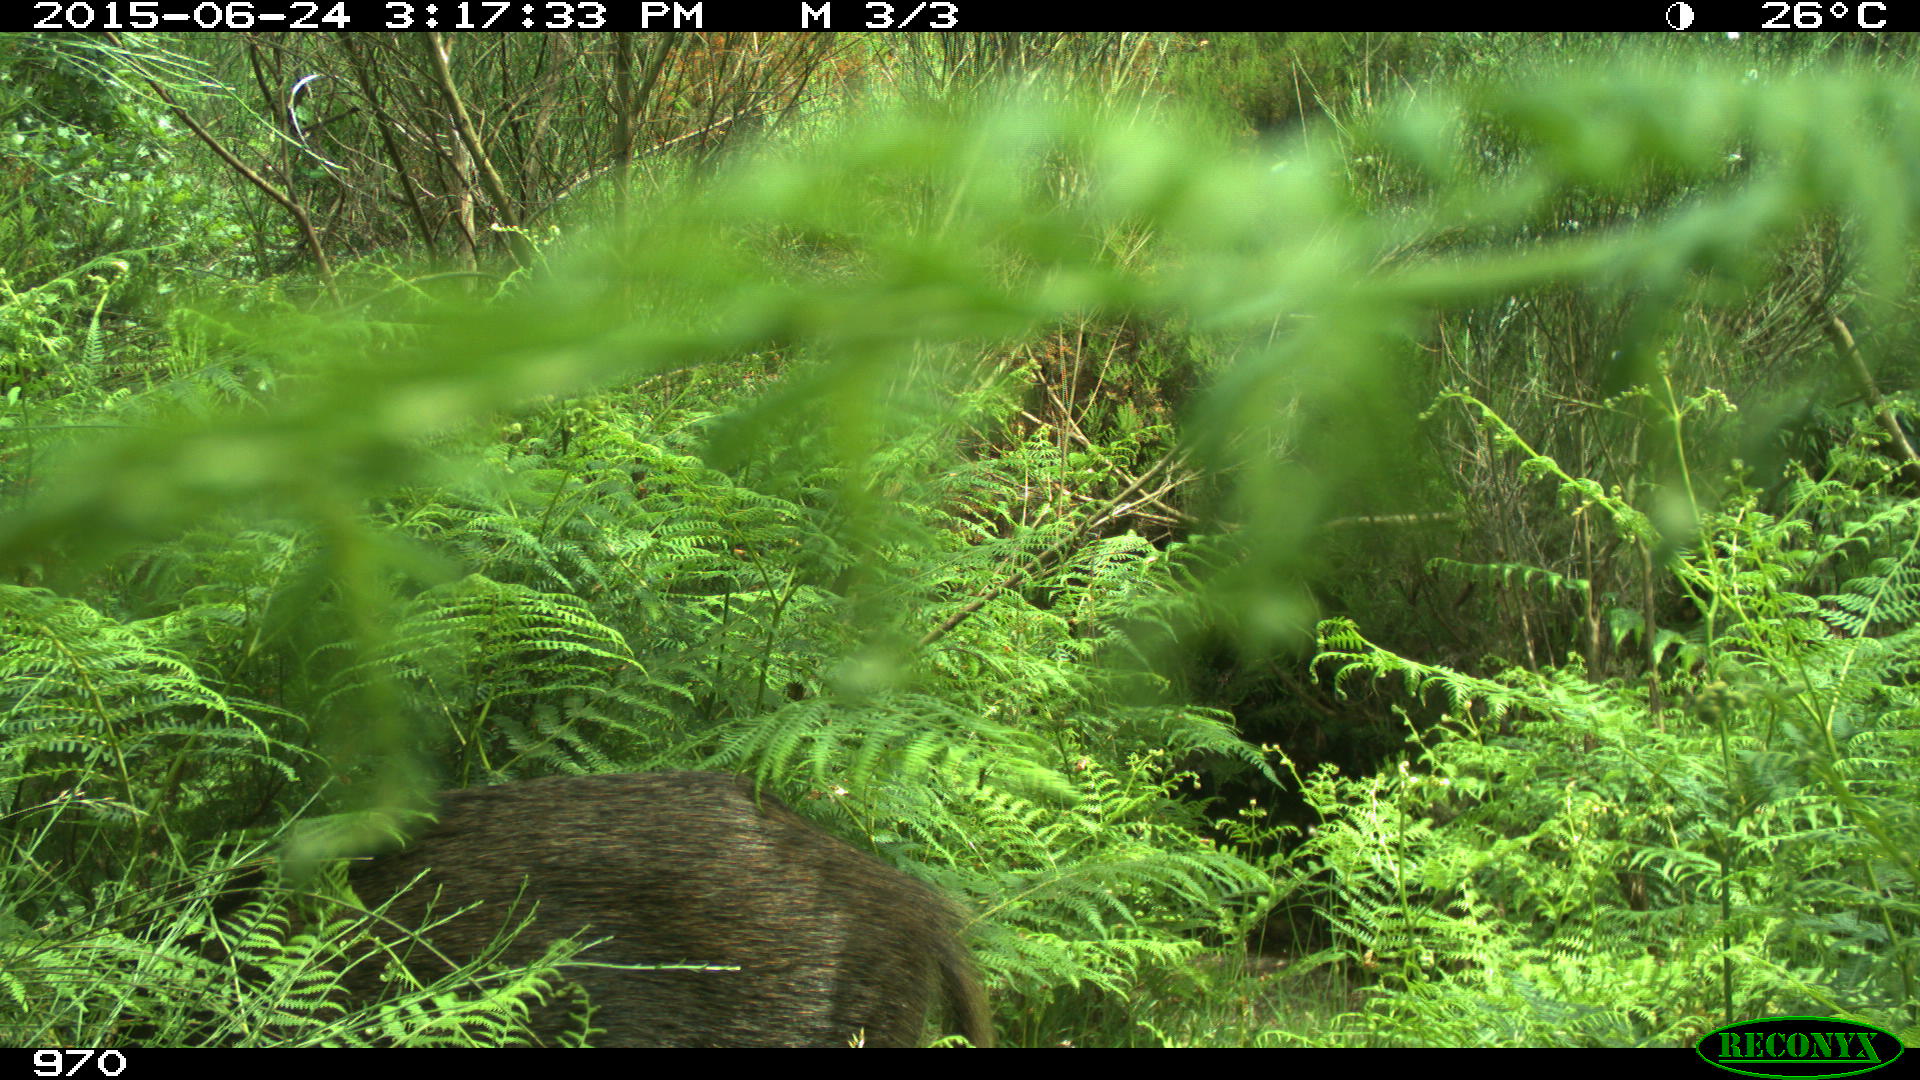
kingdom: Animalia
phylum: Chordata
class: Mammalia
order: Artiodactyla
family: Suidae
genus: Sus
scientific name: Sus scrofa
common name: Wild boar
